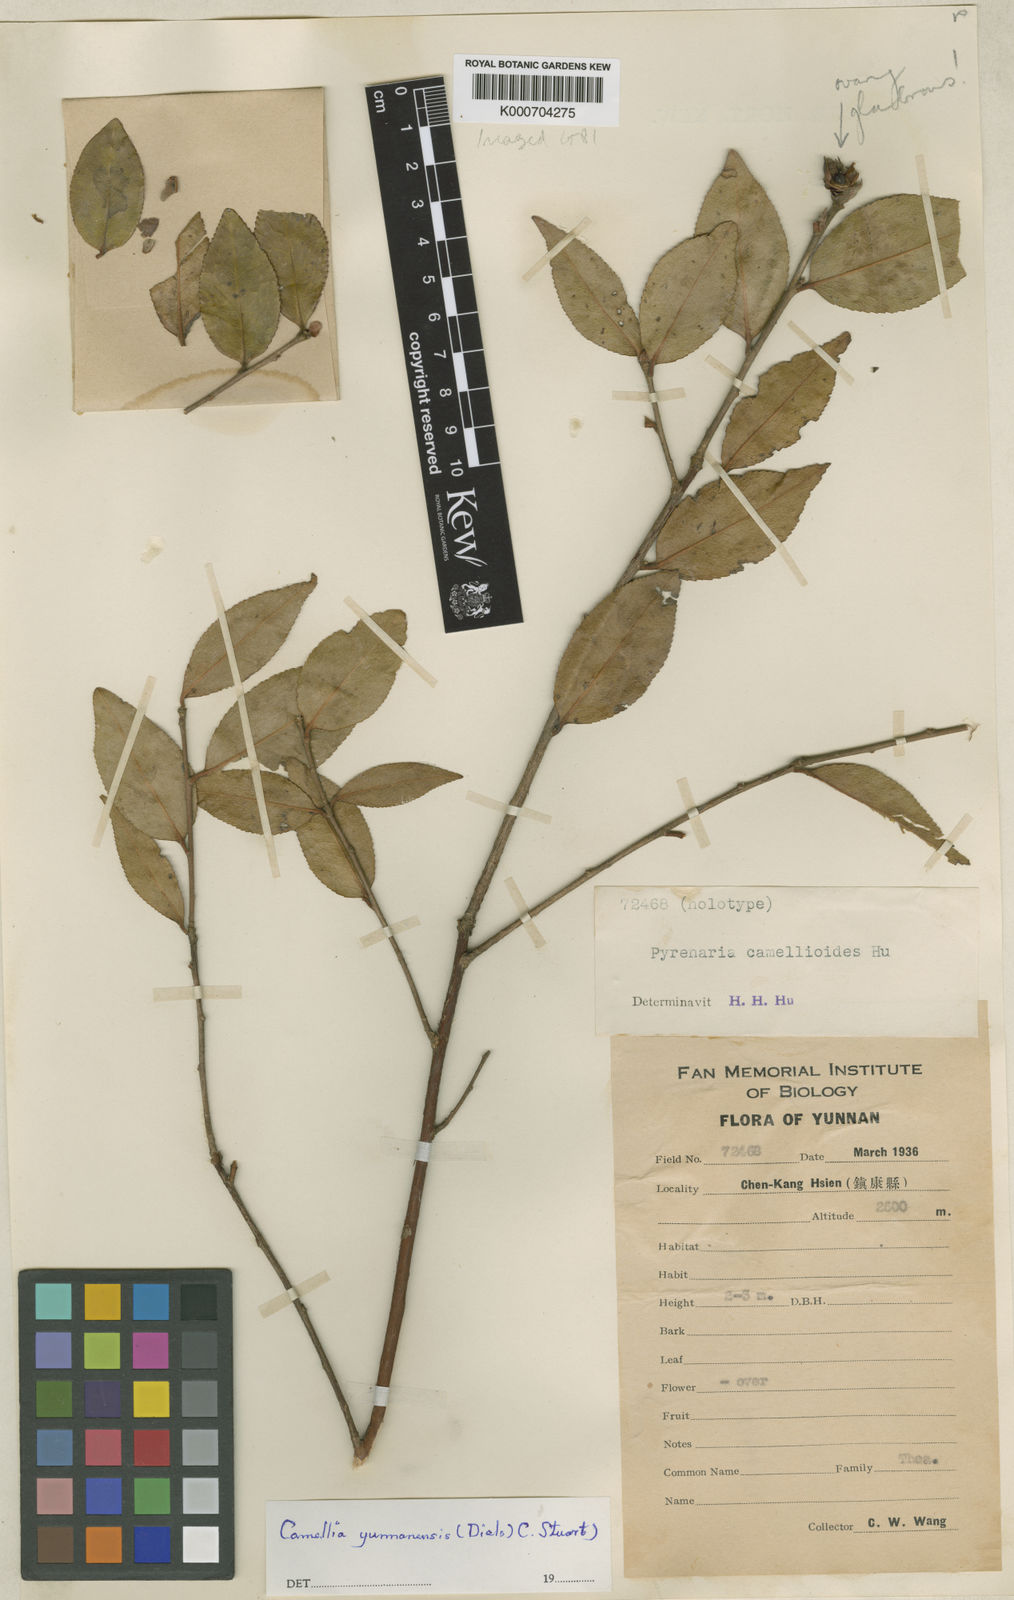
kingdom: Plantae
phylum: Tracheophyta
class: Magnoliopsida
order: Ericales
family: Theaceae
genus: Camellia
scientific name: Camellia yunnanensis
